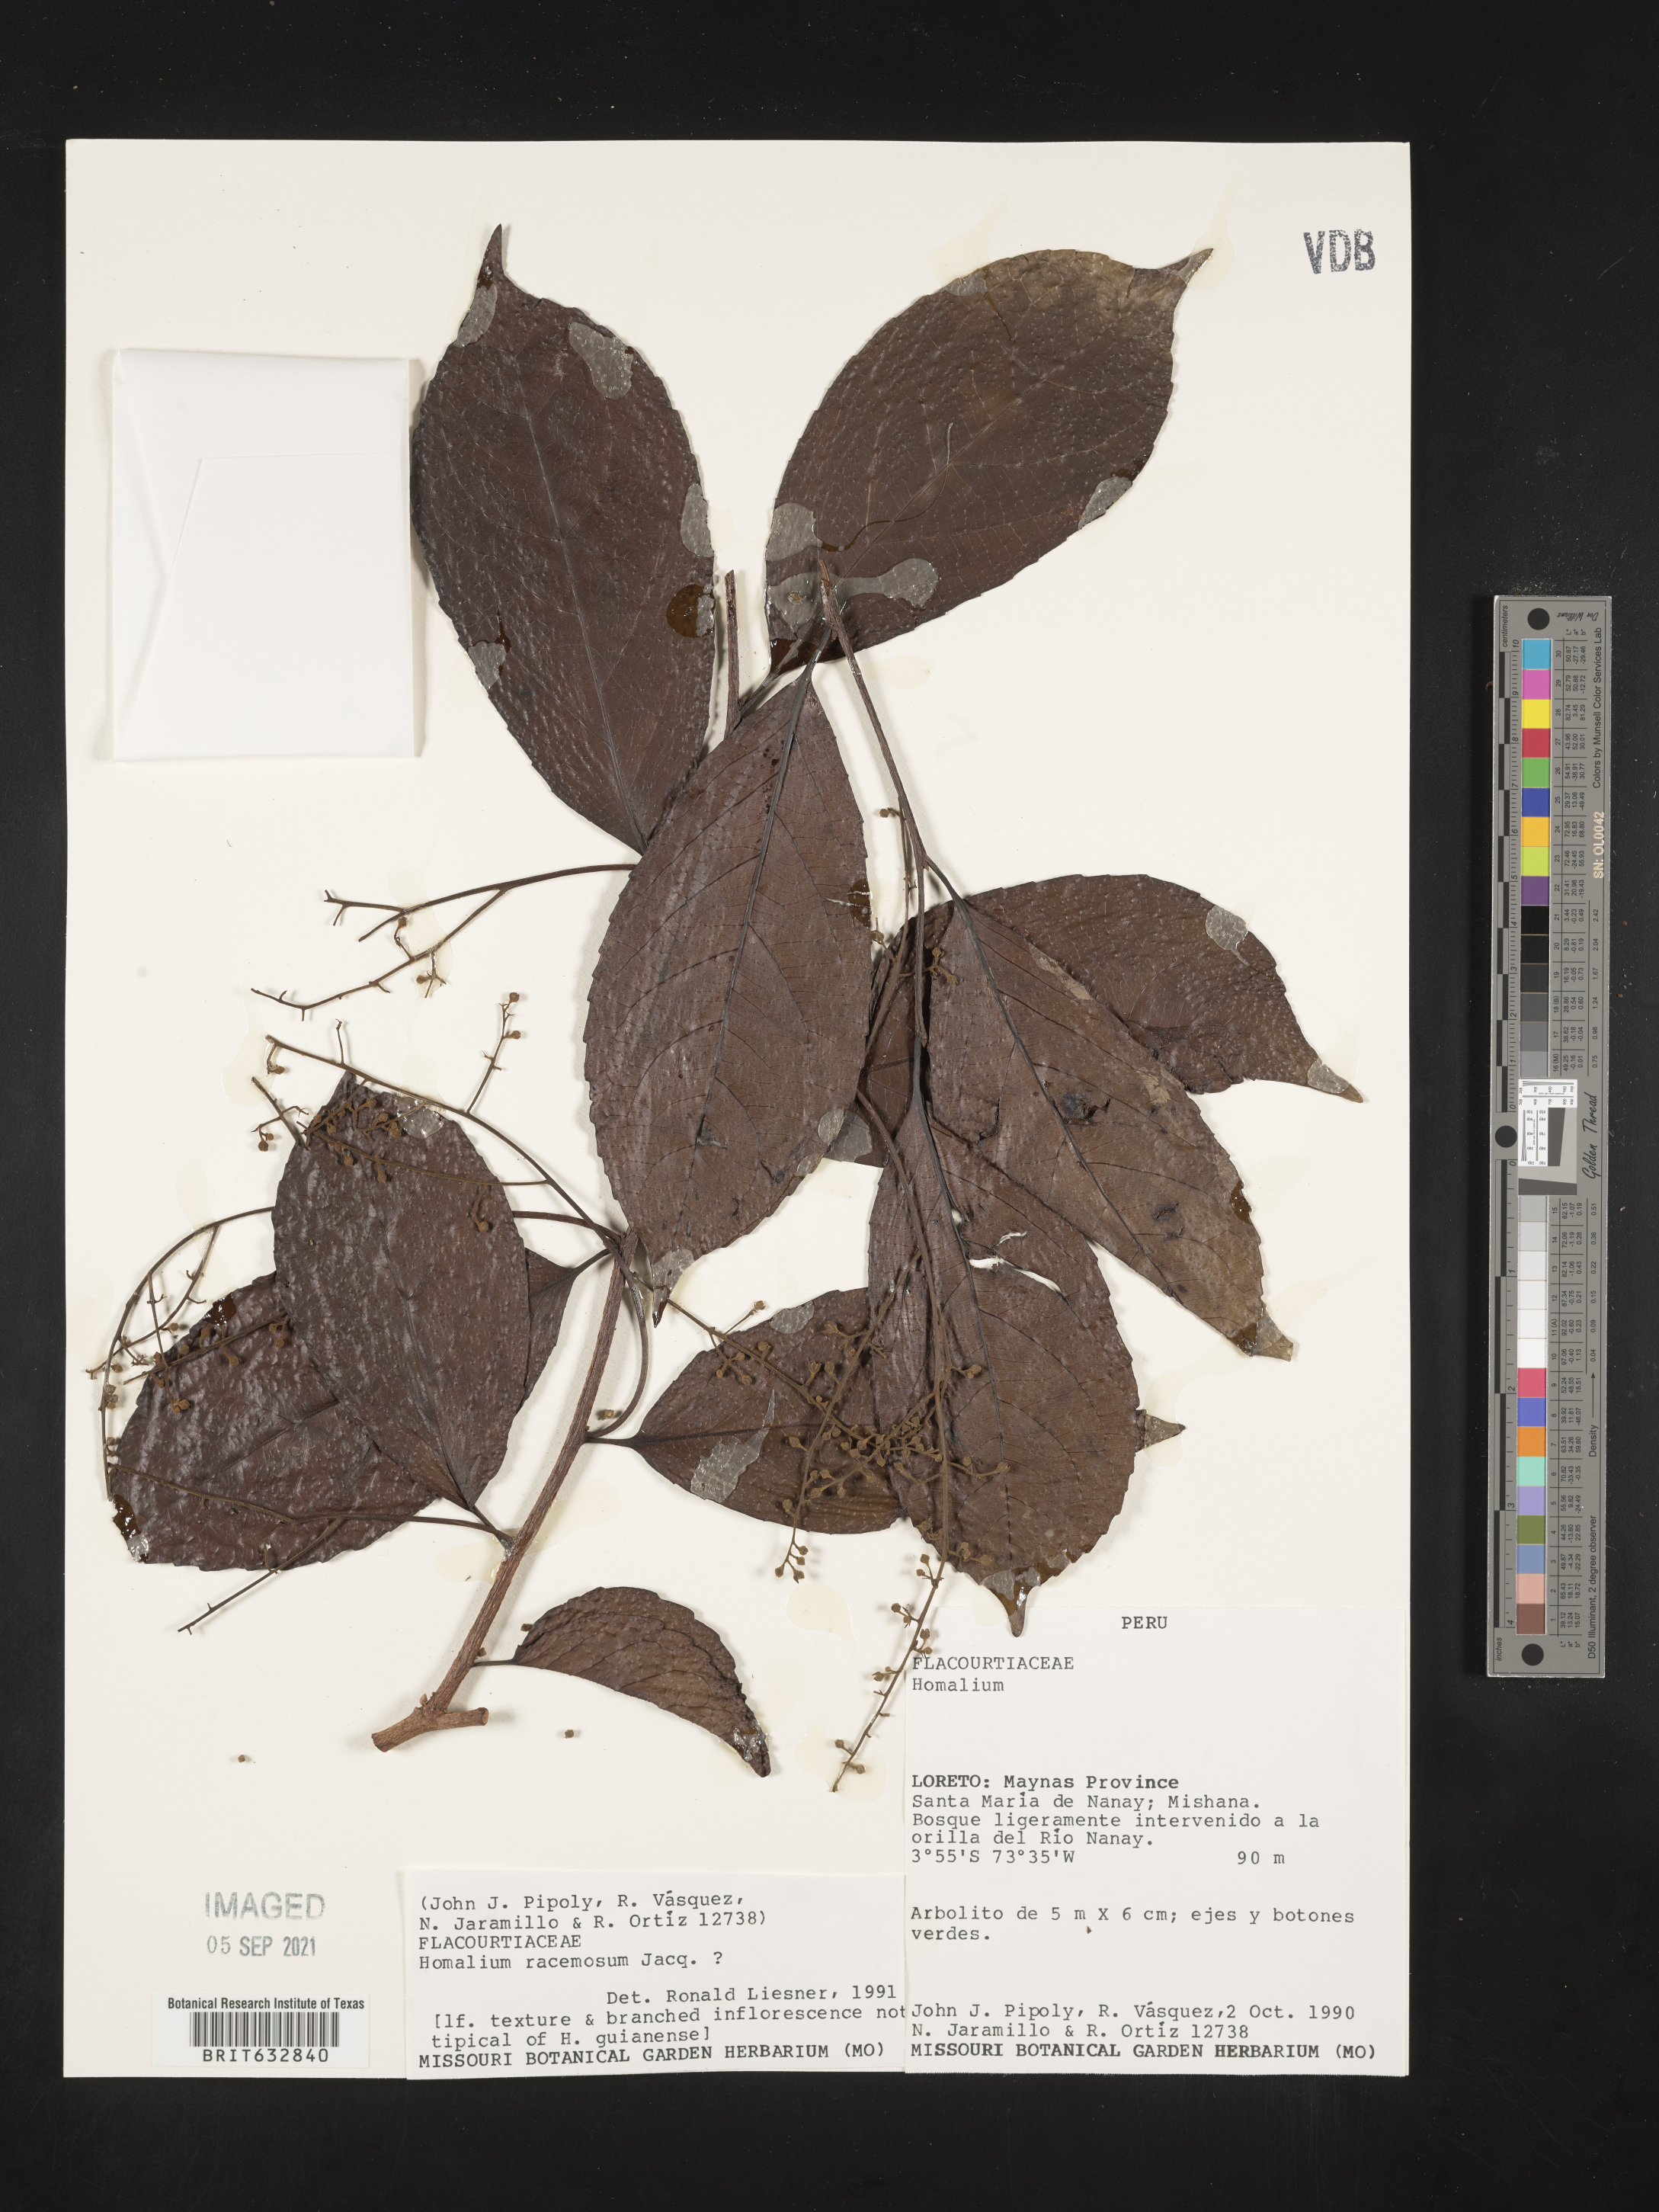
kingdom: Plantae
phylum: Tracheophyta
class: Magnoliopsida
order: Malpighiales
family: Salicaceae
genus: Homalium
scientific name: Homalium
